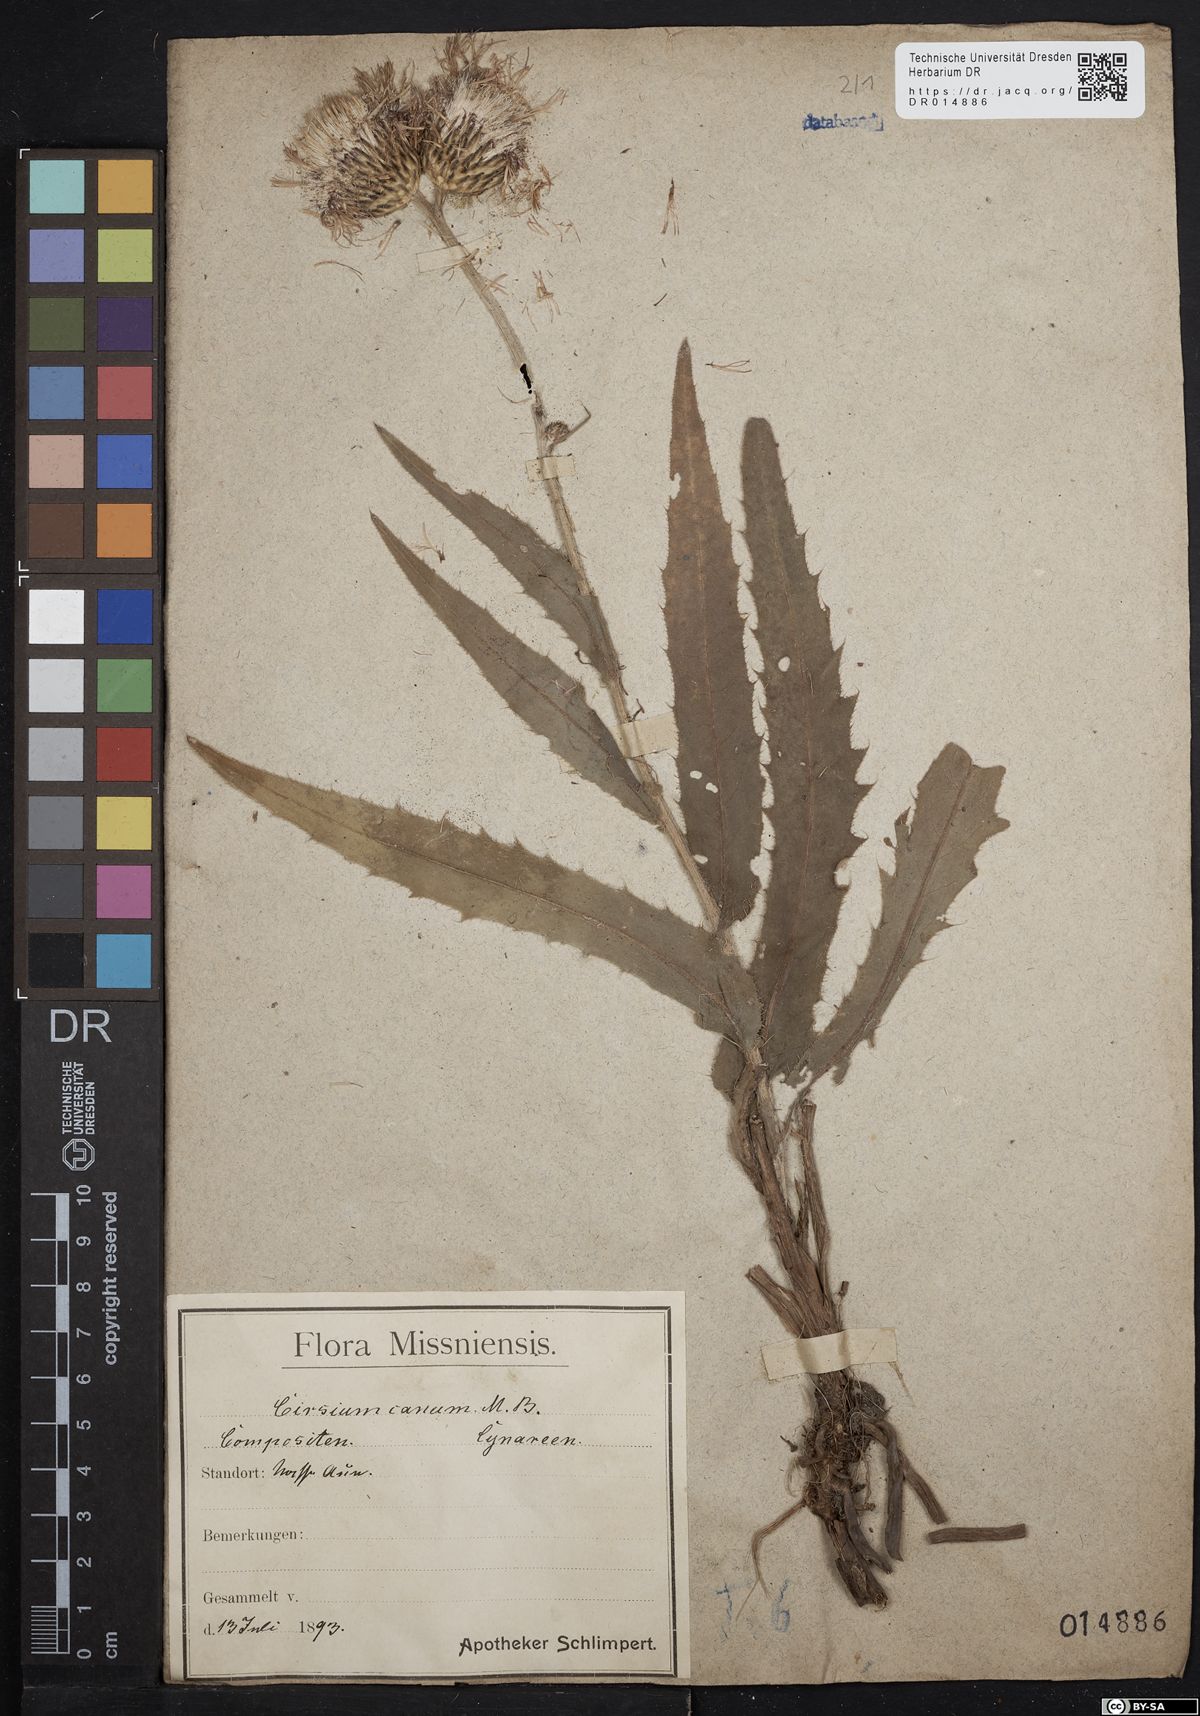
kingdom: Plantae
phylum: Tracheophyta
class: Magnoliopsida
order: Asterales
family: Asteraceae
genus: Cirsium
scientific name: Cirsium canum
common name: Queen anne's thistle
